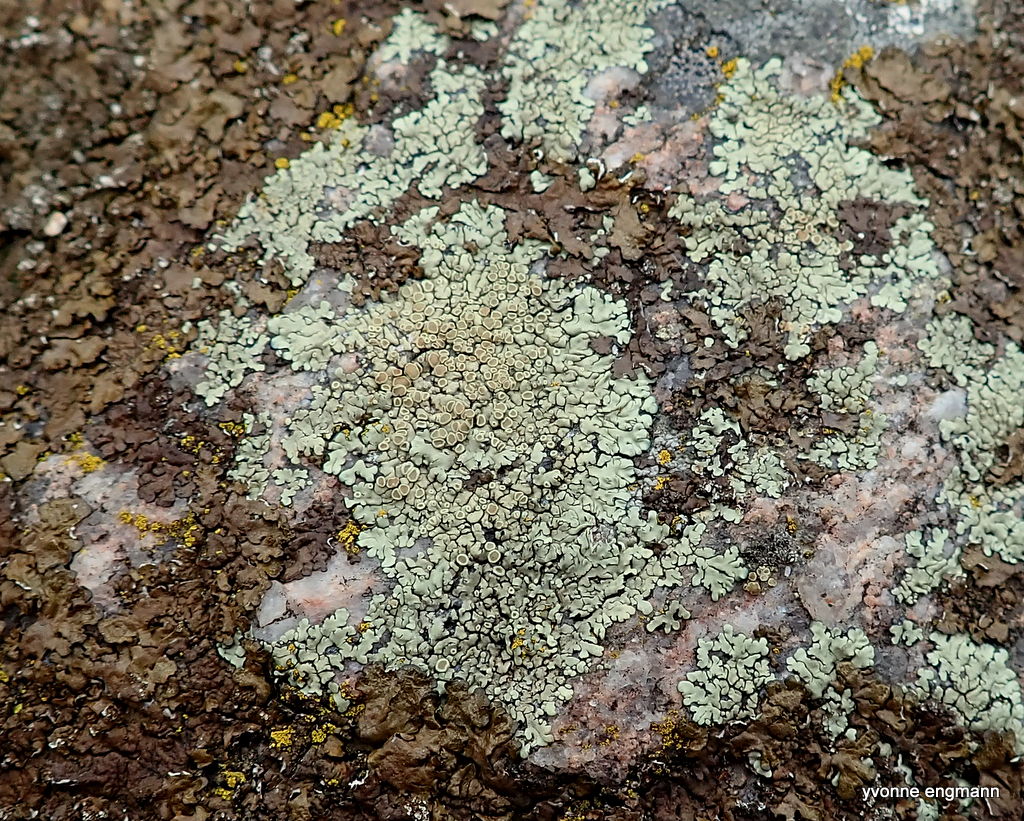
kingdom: Fungi
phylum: Ascomycota
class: Lecanoromycetes
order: Lecanorales
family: Lecanoraceae
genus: Protoparmeliopsis
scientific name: Protoparmeliopsis muralis
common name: randfliget kantskivelav
